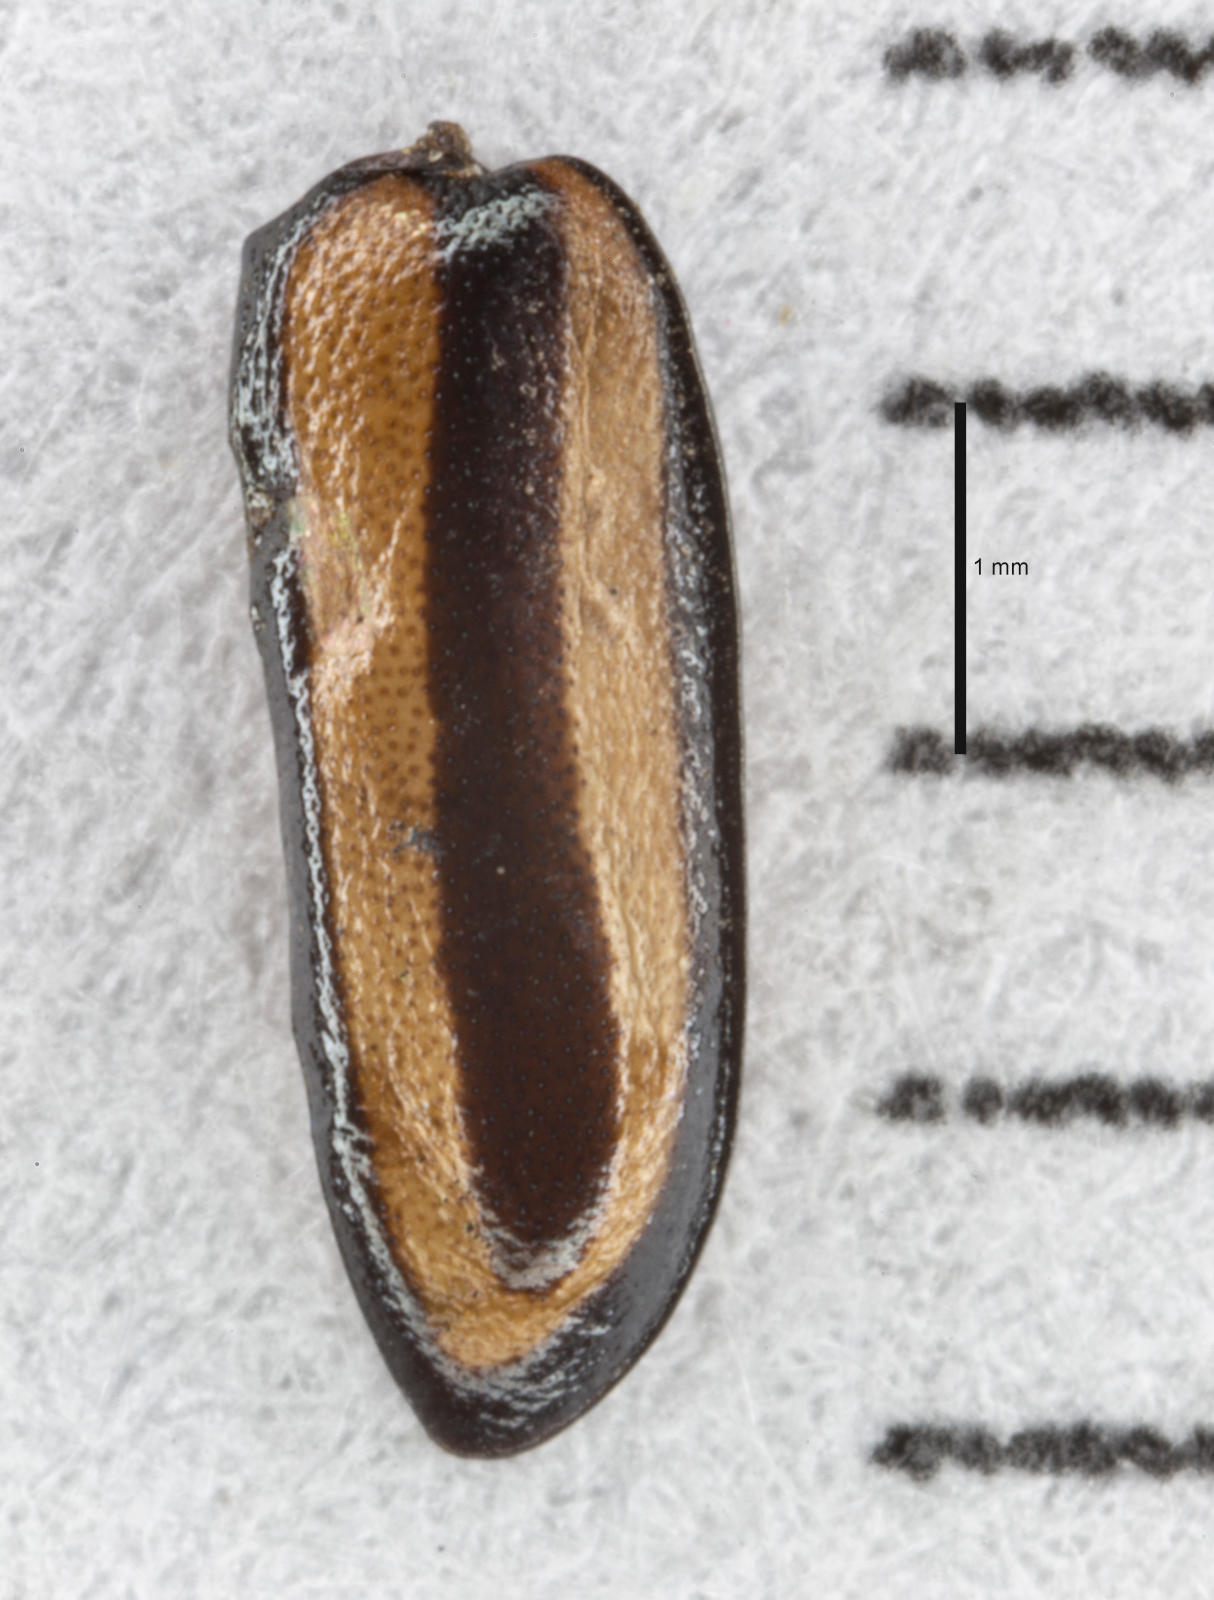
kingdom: Animalia
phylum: Arthropoda
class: Insecta
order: Coleoptera
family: Chrysomelidae
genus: Disonycha
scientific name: Disonycha
